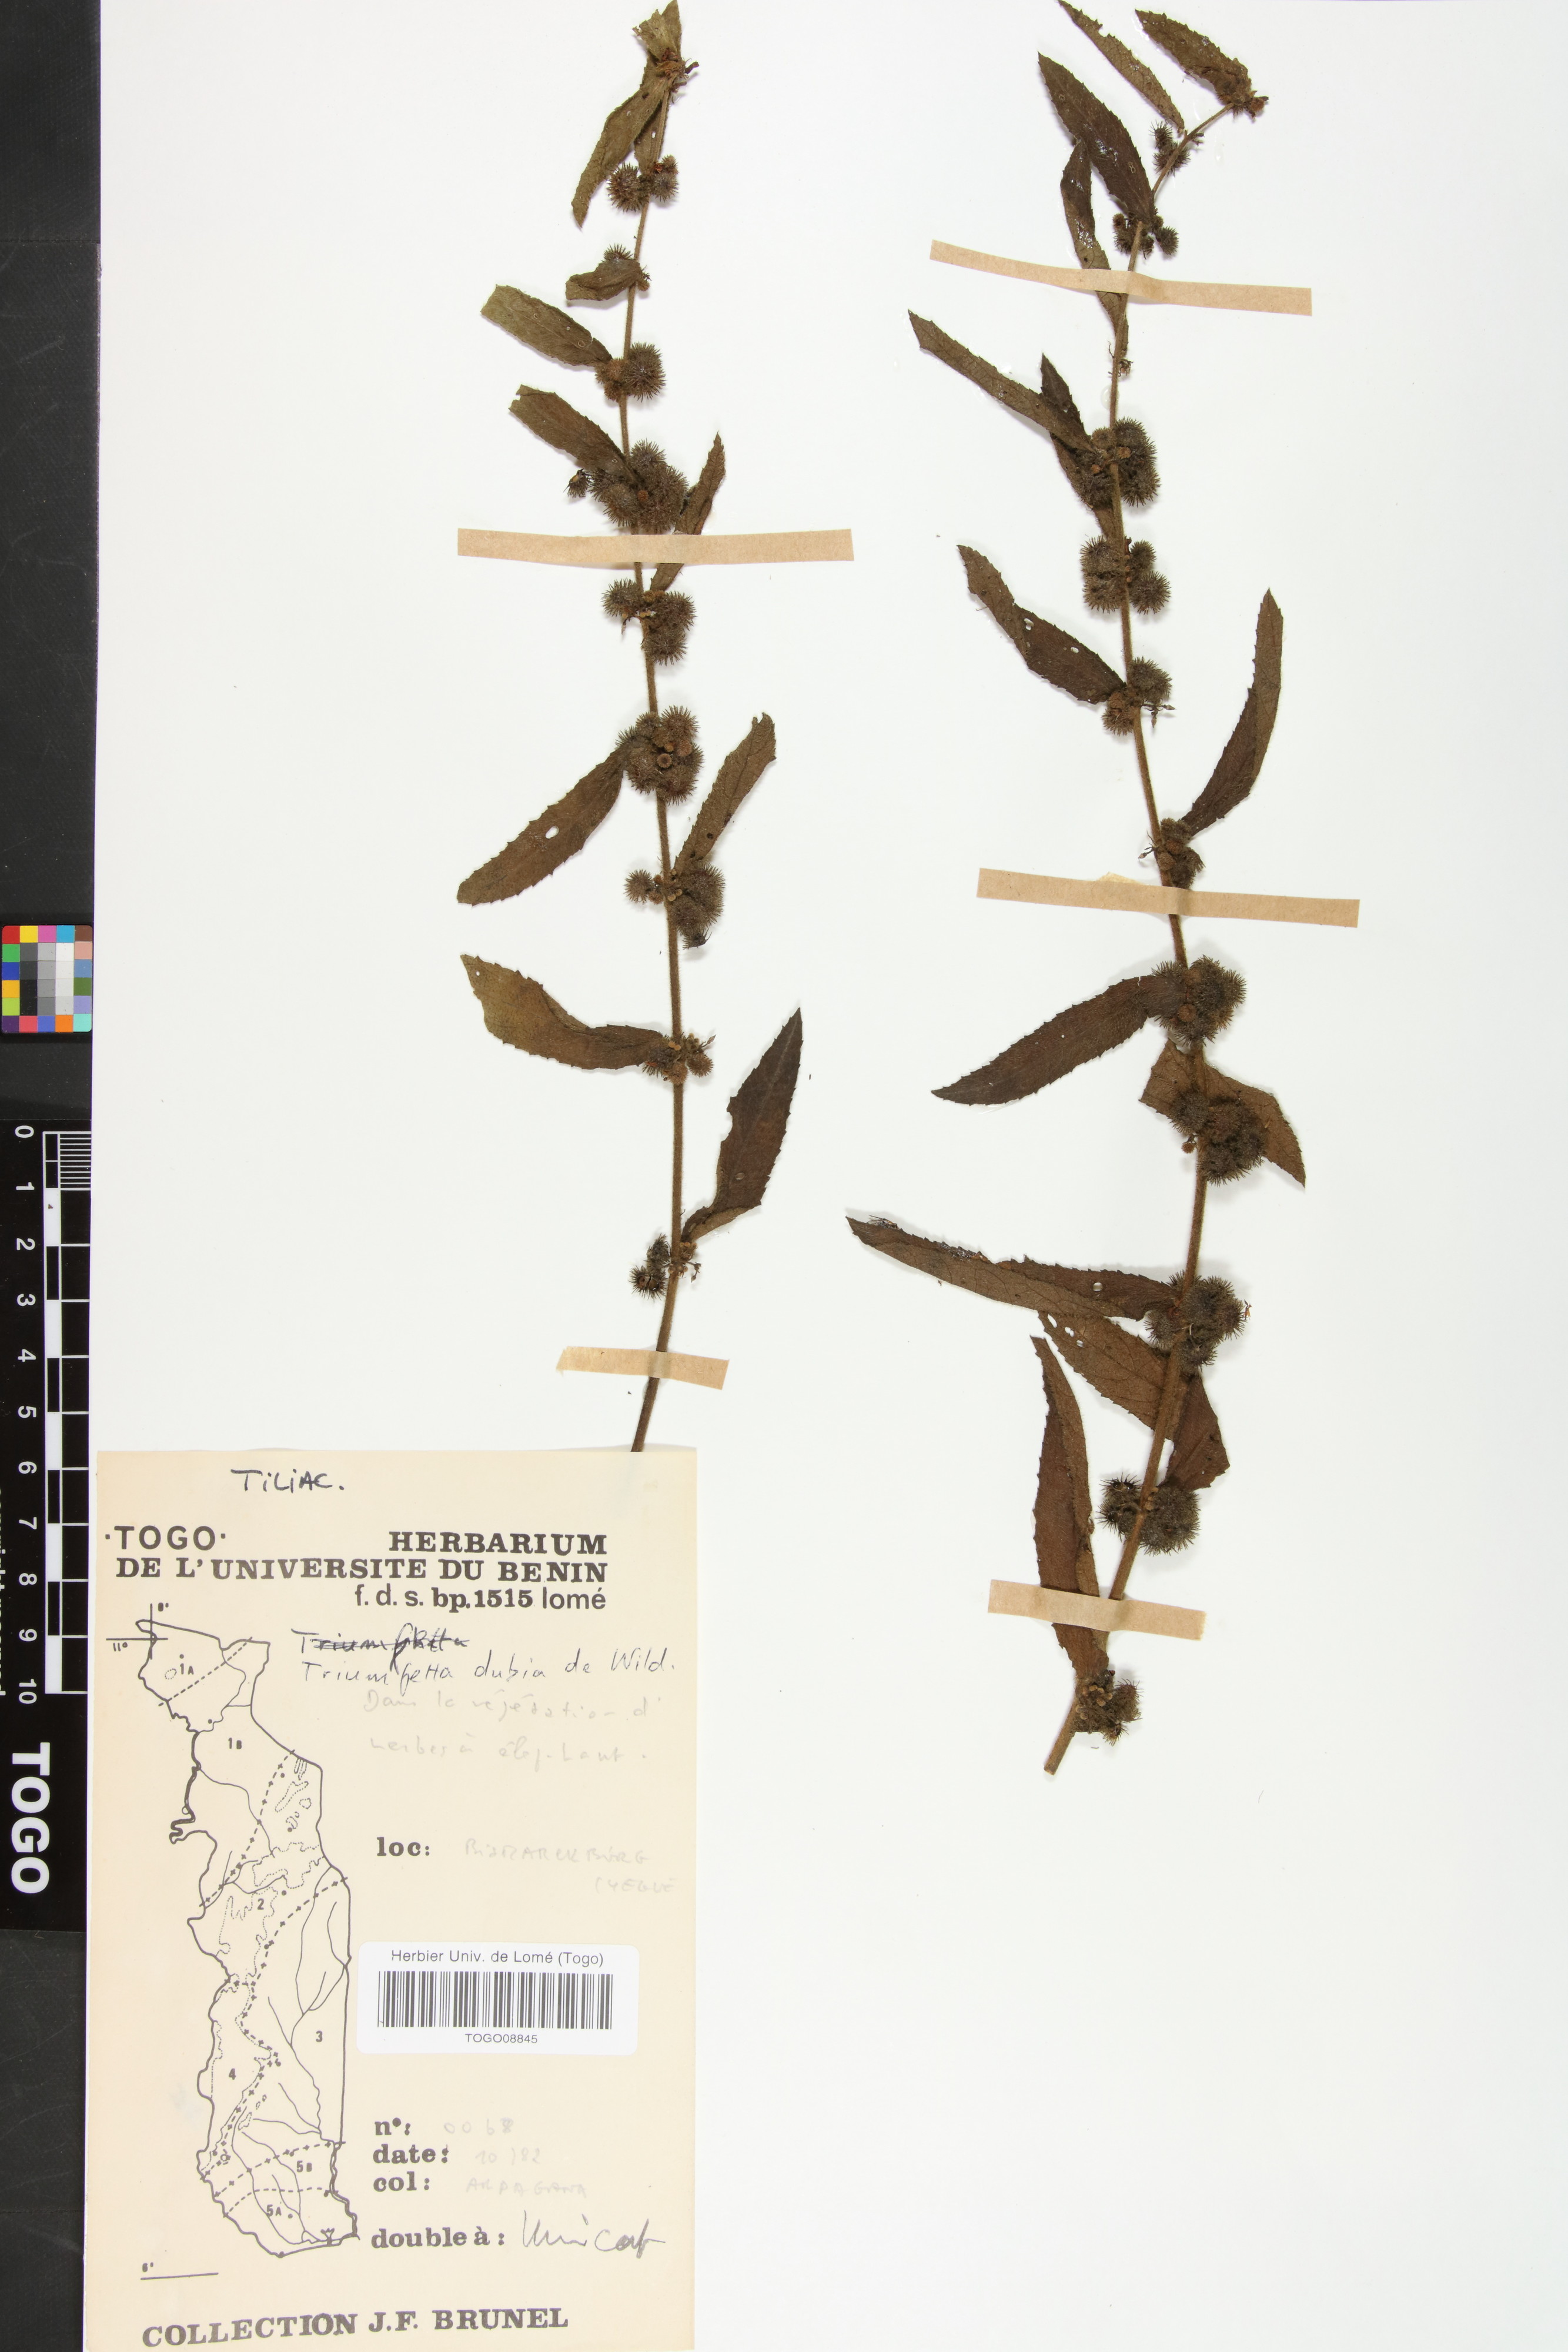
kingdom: Plantae
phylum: Tracheophyta
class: Magnoliopsida
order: Malvales
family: Malvaceae
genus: Triumfetta
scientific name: Triumfetta setulosa
